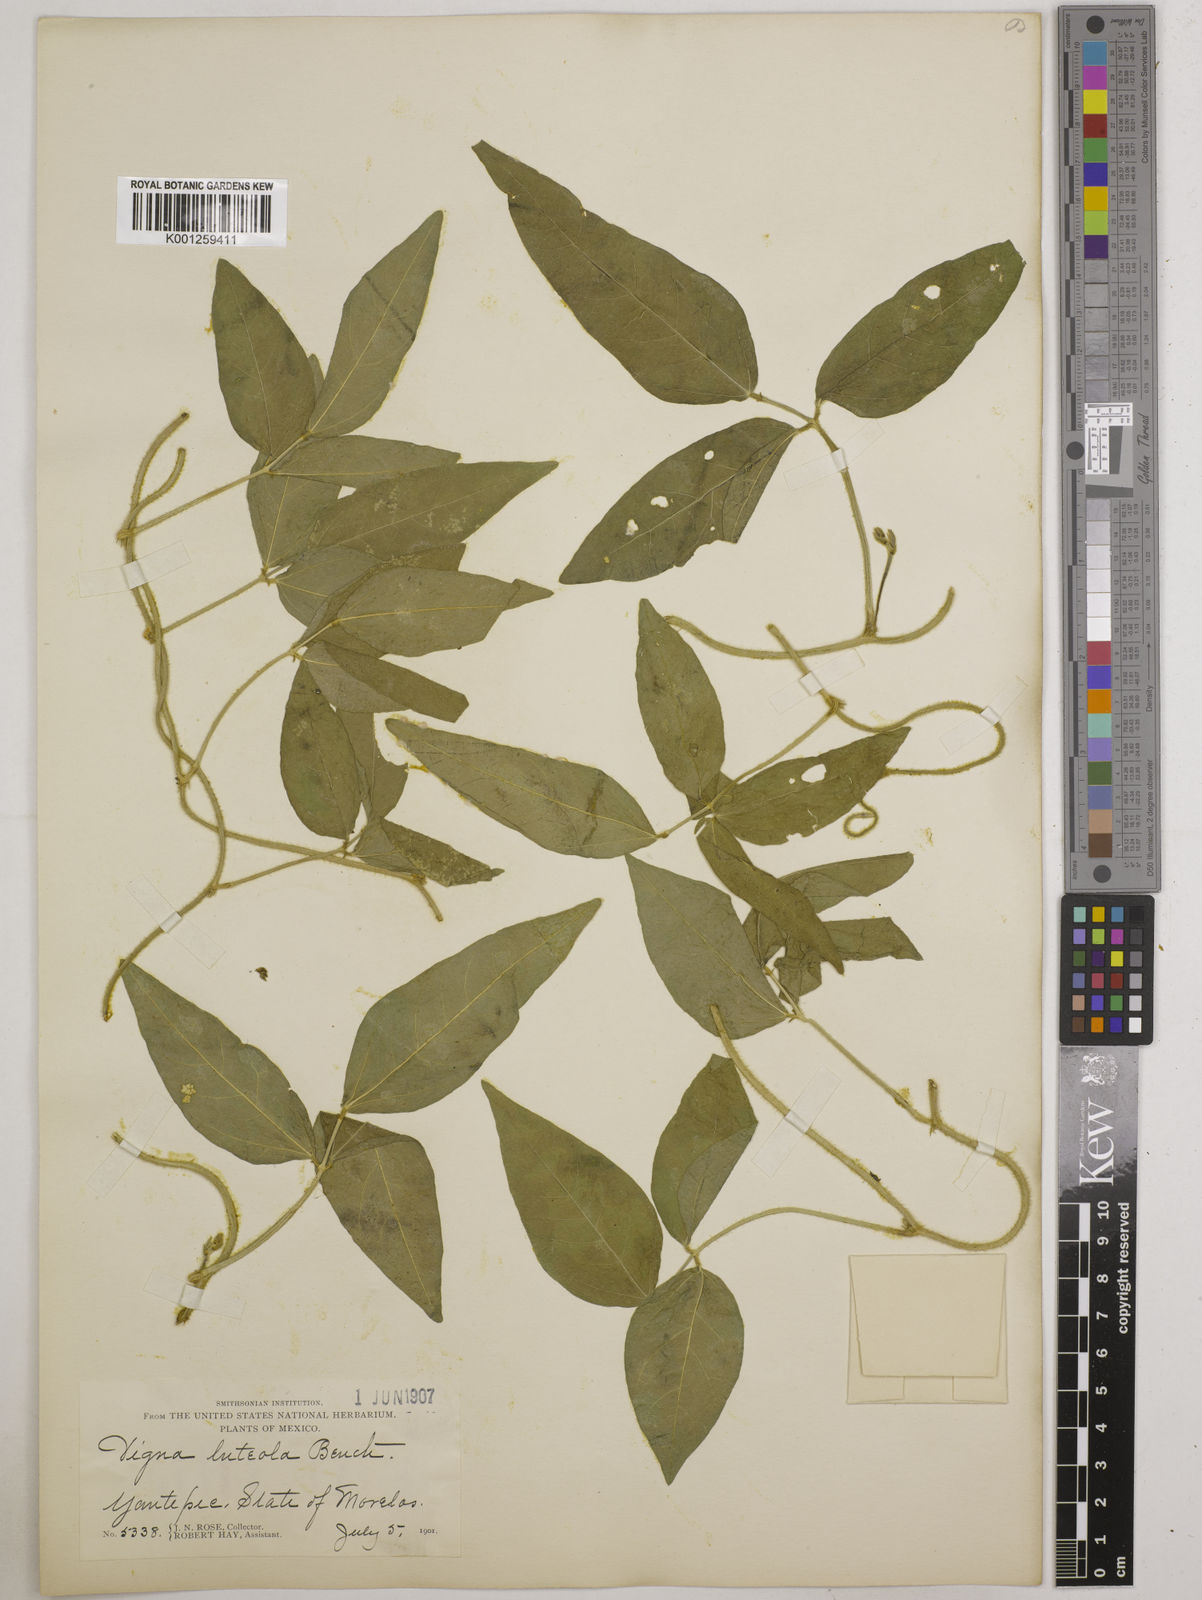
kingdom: Plantae
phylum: Tracheophyta
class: Magnoliopsida
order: Fabales
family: Fabaceae
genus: Vigna
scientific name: Vigna luteola
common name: Hairypod cowpea
